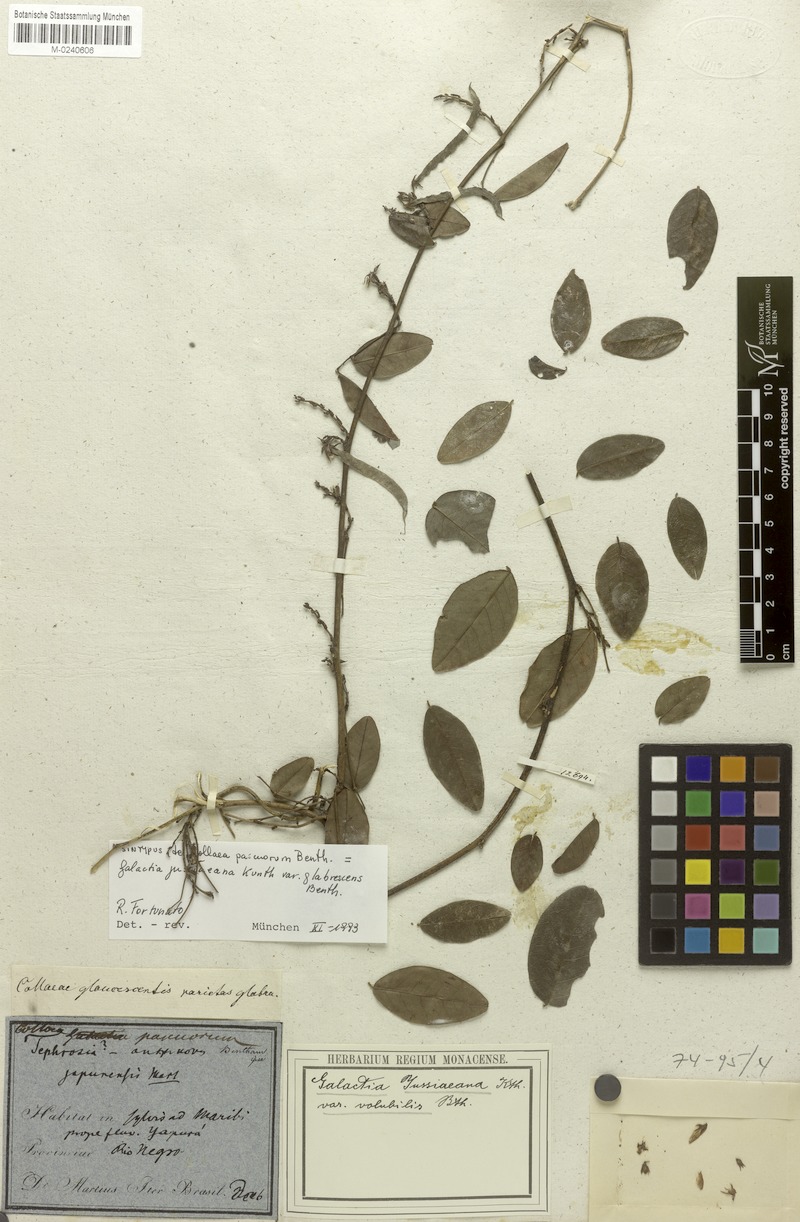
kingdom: Plantae
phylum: Tracheophyta
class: Magnoliopsida
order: Fabales
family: Fabaceae
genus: Galactia
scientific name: Galactia jussiaeana
